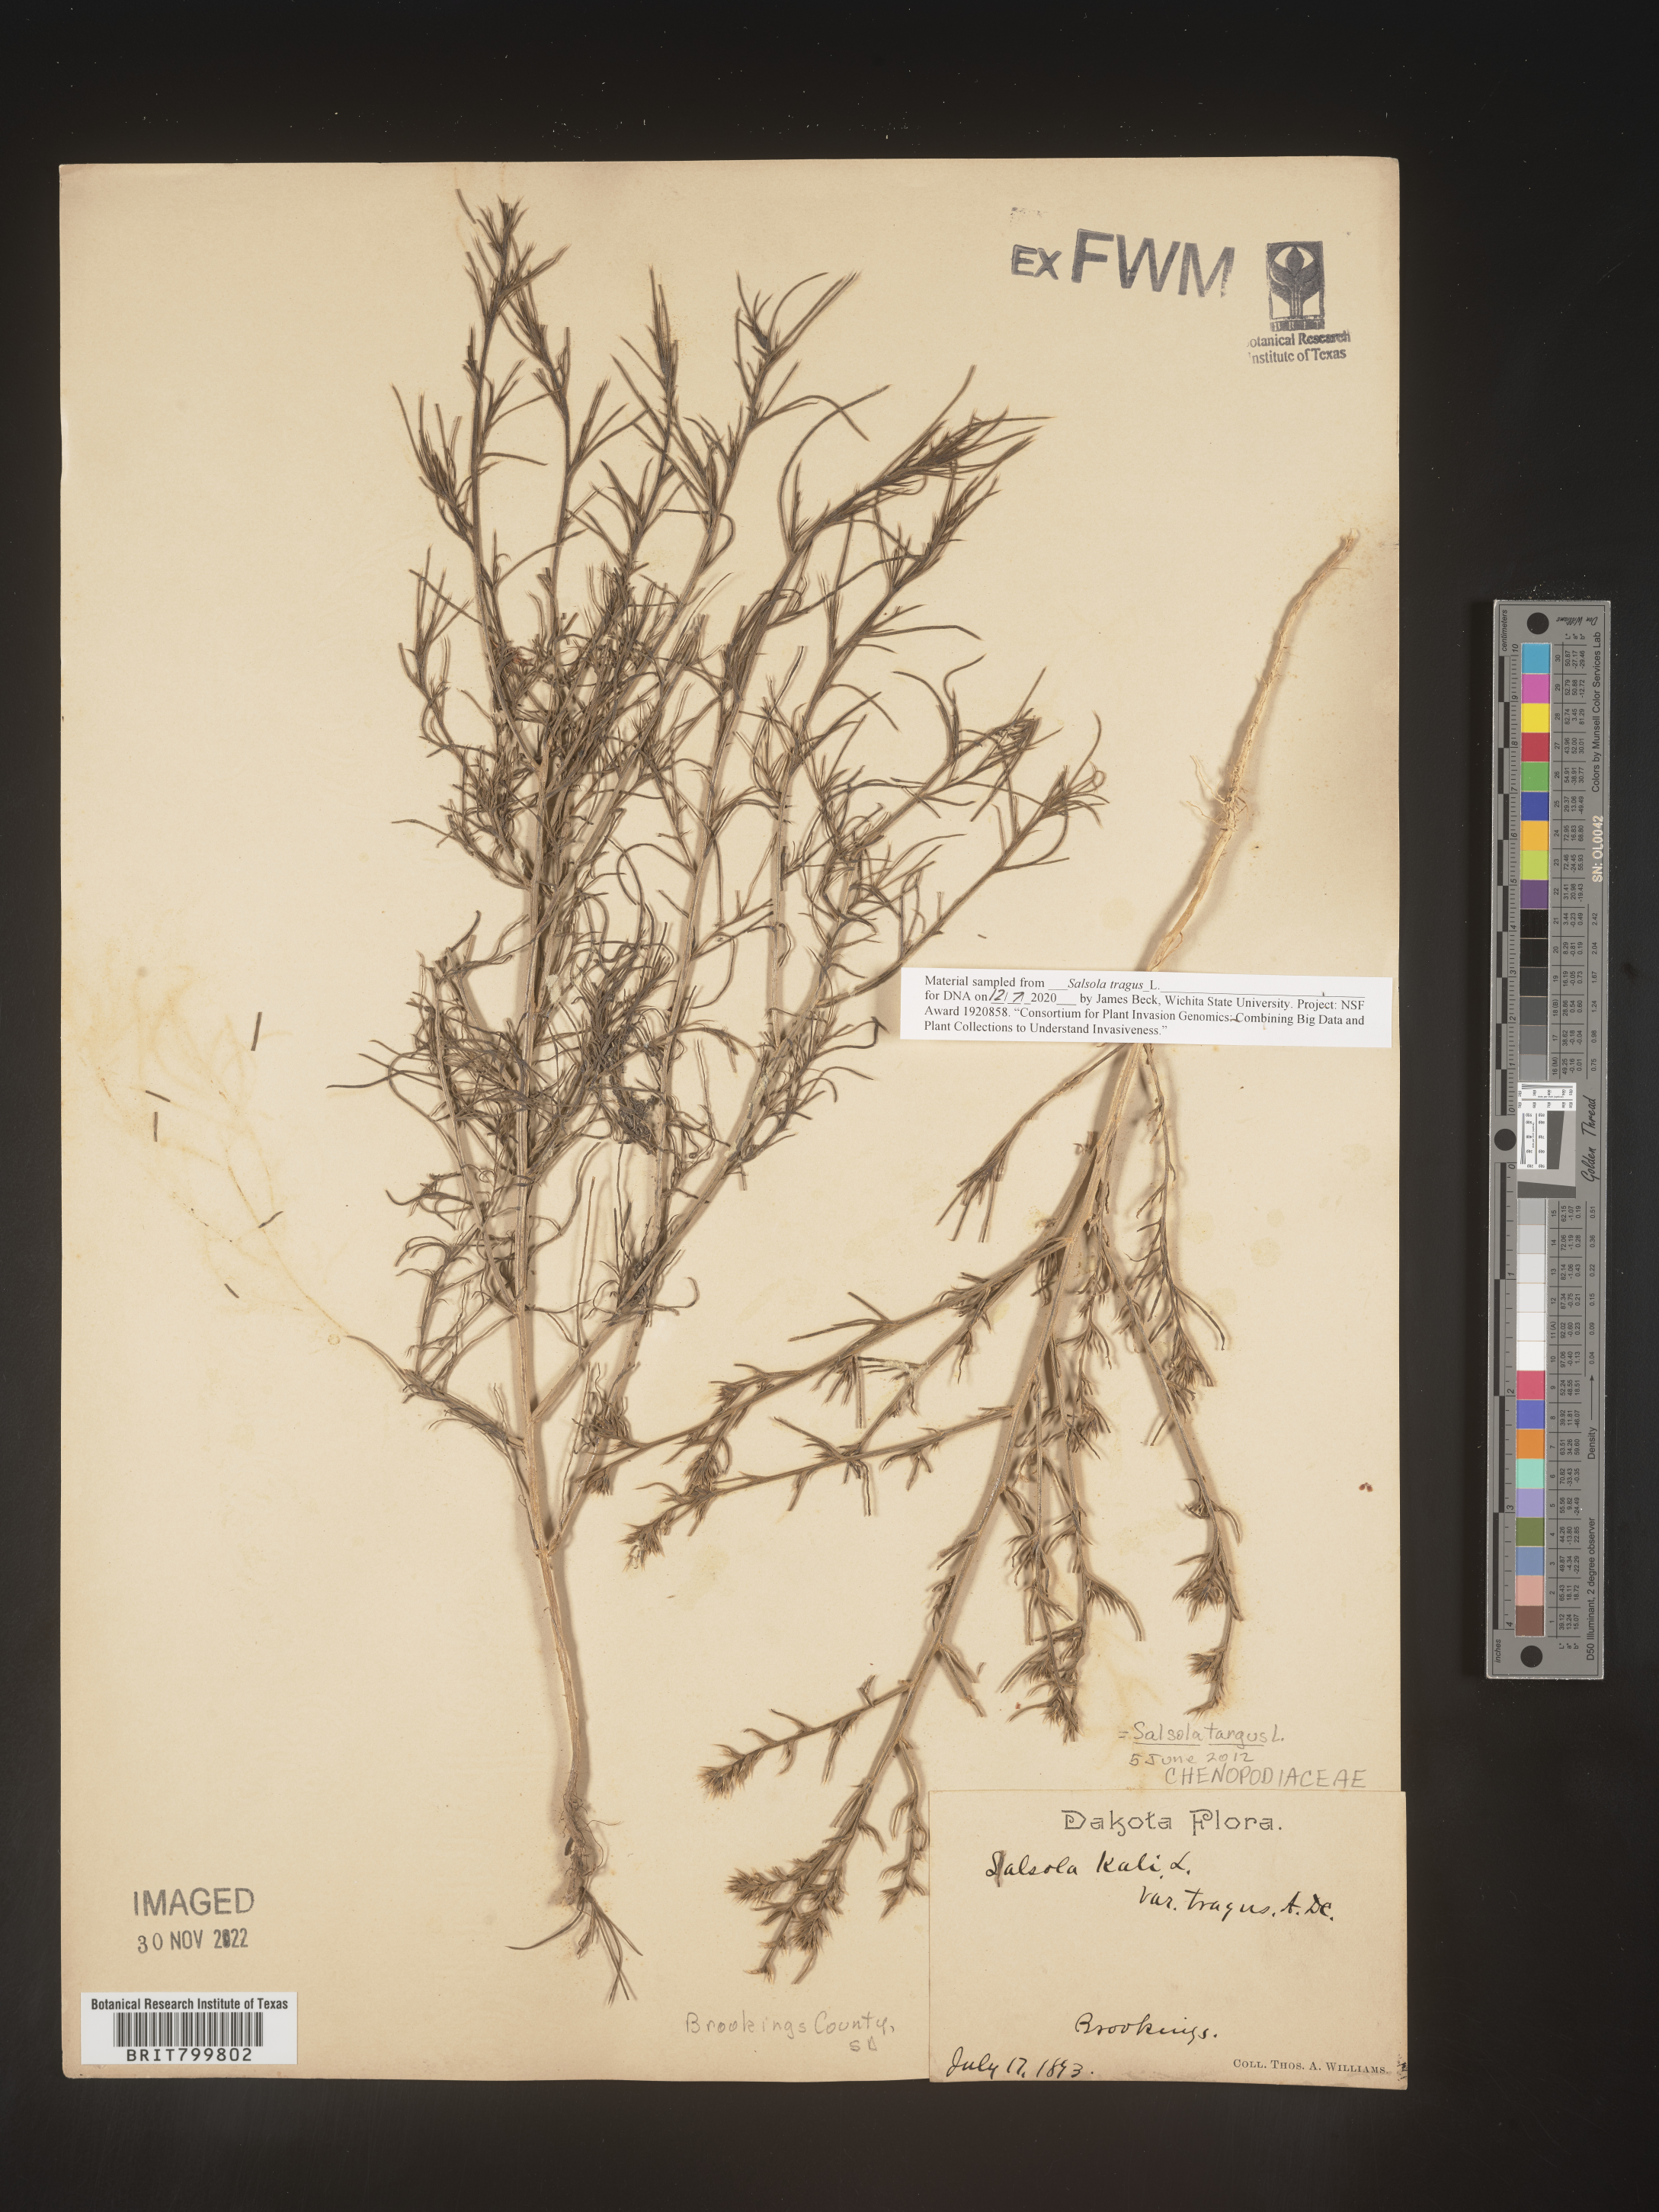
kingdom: Plantae
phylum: Tracheophyta
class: Magnoliopsida
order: Caryophyllales
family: Amaranthaceae
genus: Salsola
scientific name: Salsola tragus
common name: Prickly russian thistle
